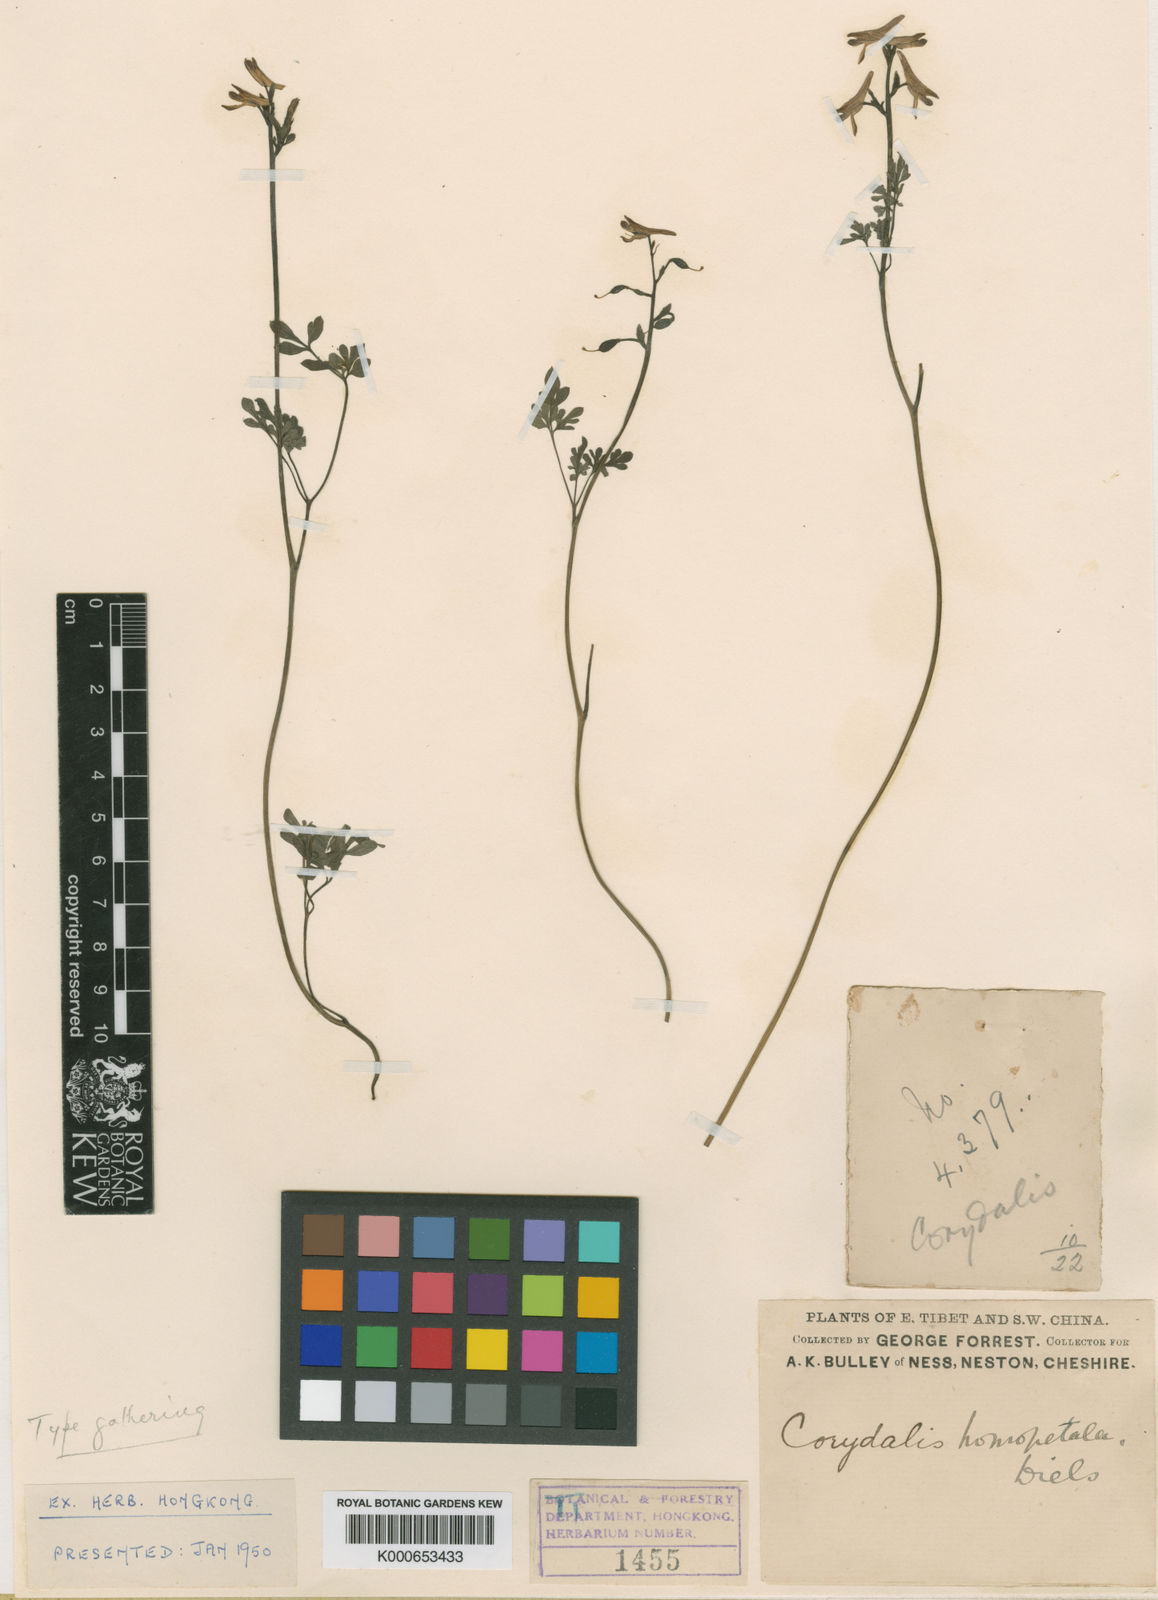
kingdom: Plantae
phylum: Tracheophyta
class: Magnoliopsida
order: Ranunculales
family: Papaveraceae
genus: Corydalis
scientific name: Corydalis homopetala
